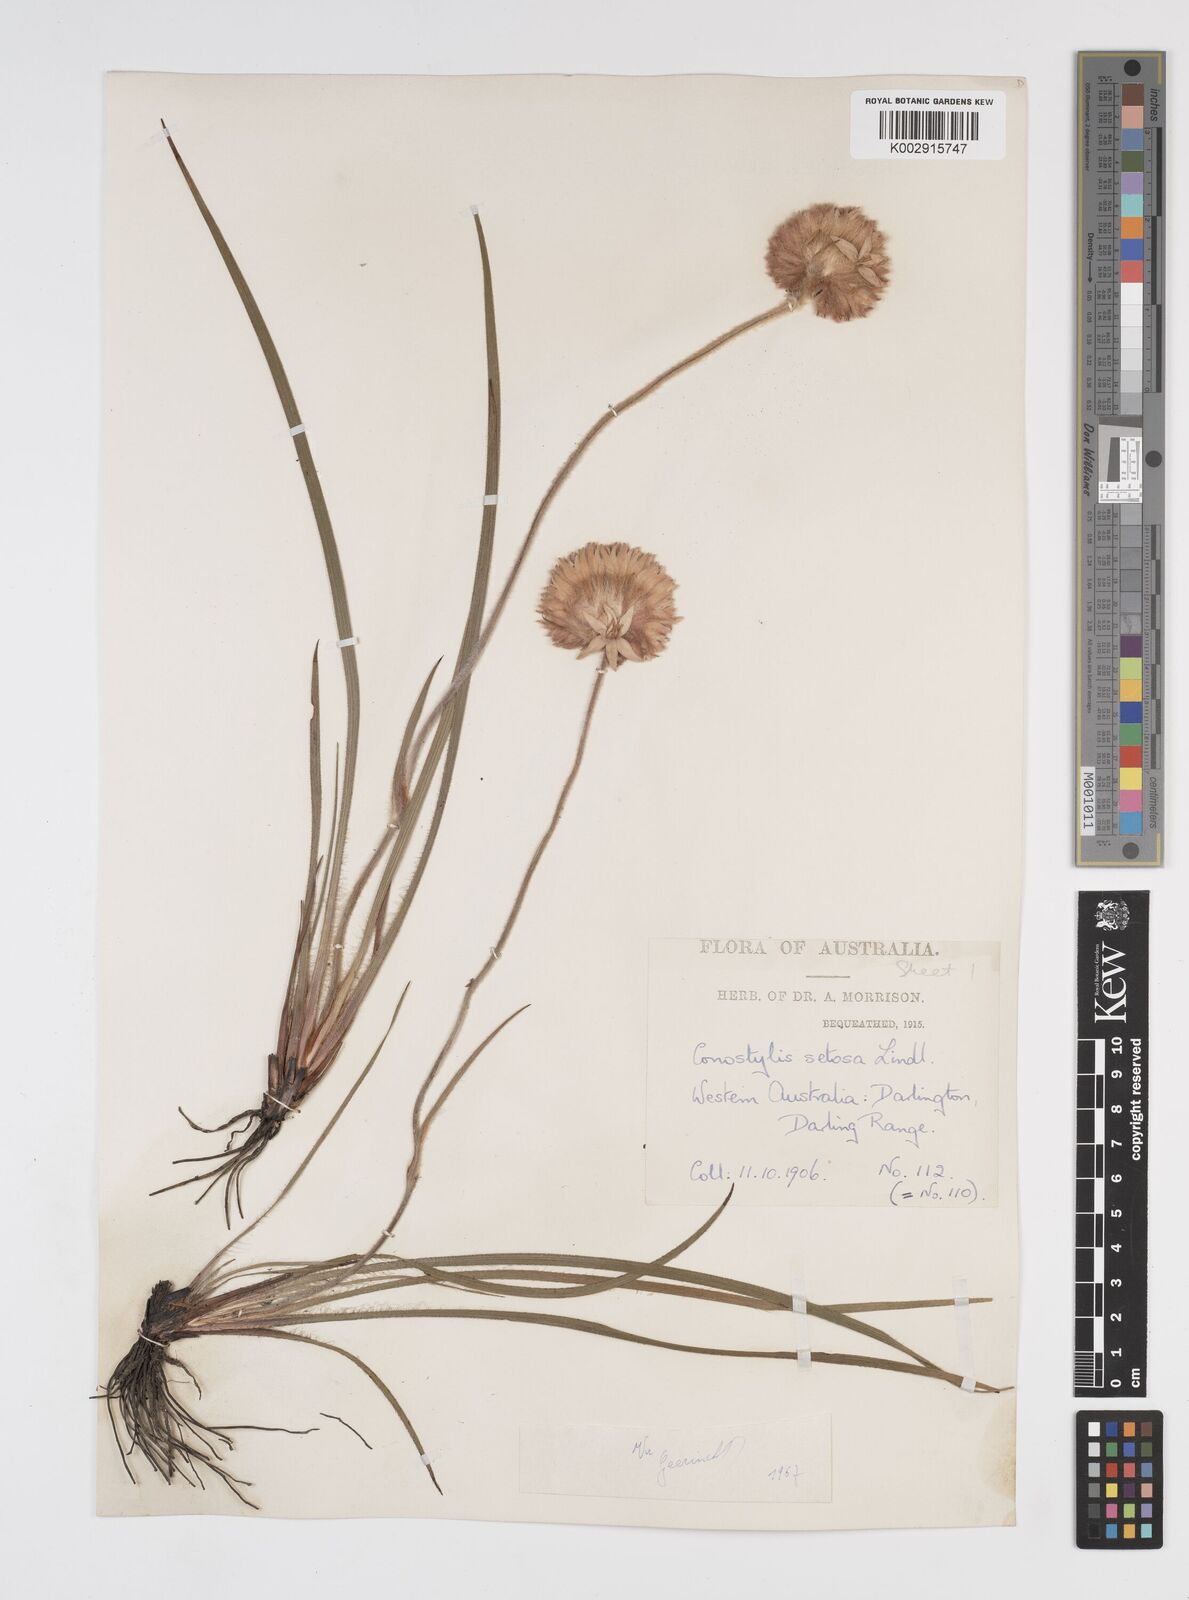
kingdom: Plantae
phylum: Tracheophyta
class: Liliopsida
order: Commelinales
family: Haemodoraceae
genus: Conostylis
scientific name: Conostylis setosa
